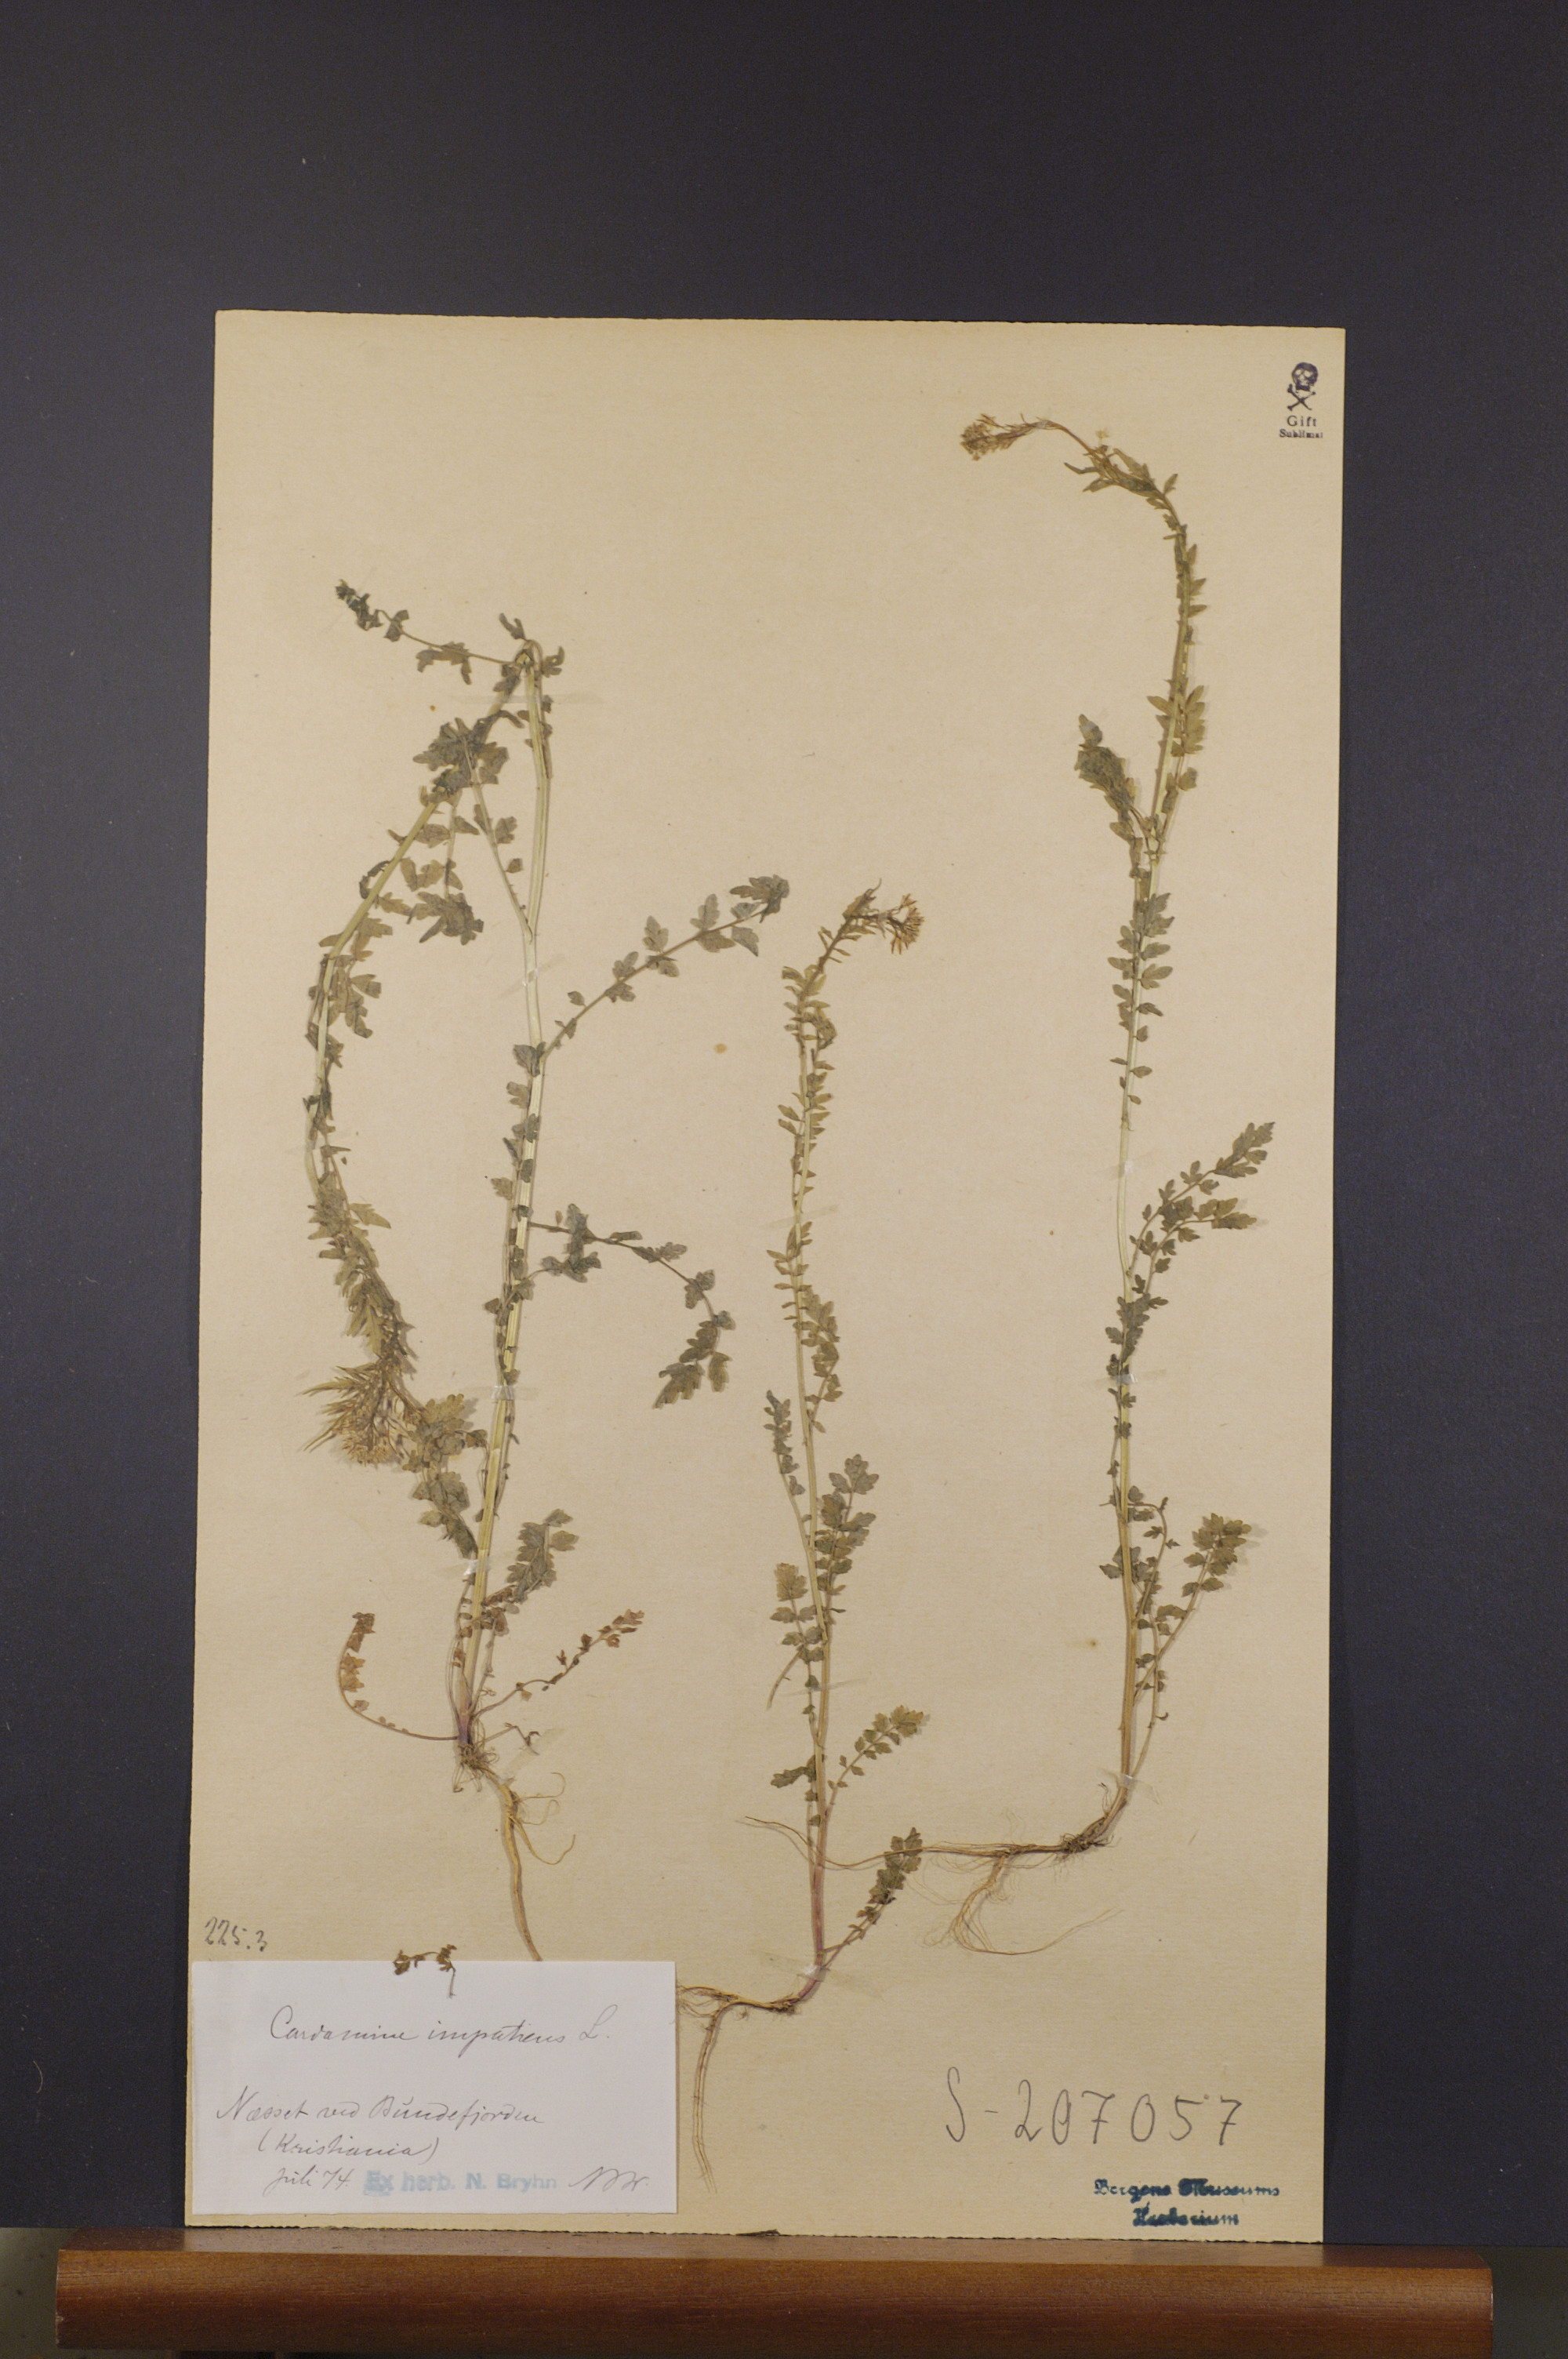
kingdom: Plantae
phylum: Tracheophyta
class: Magnoliopsida
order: Brassicales
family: Brassicaceae
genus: Cardamine
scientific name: Cardamine impatiens
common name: Narrow-leaved bitter-cress
